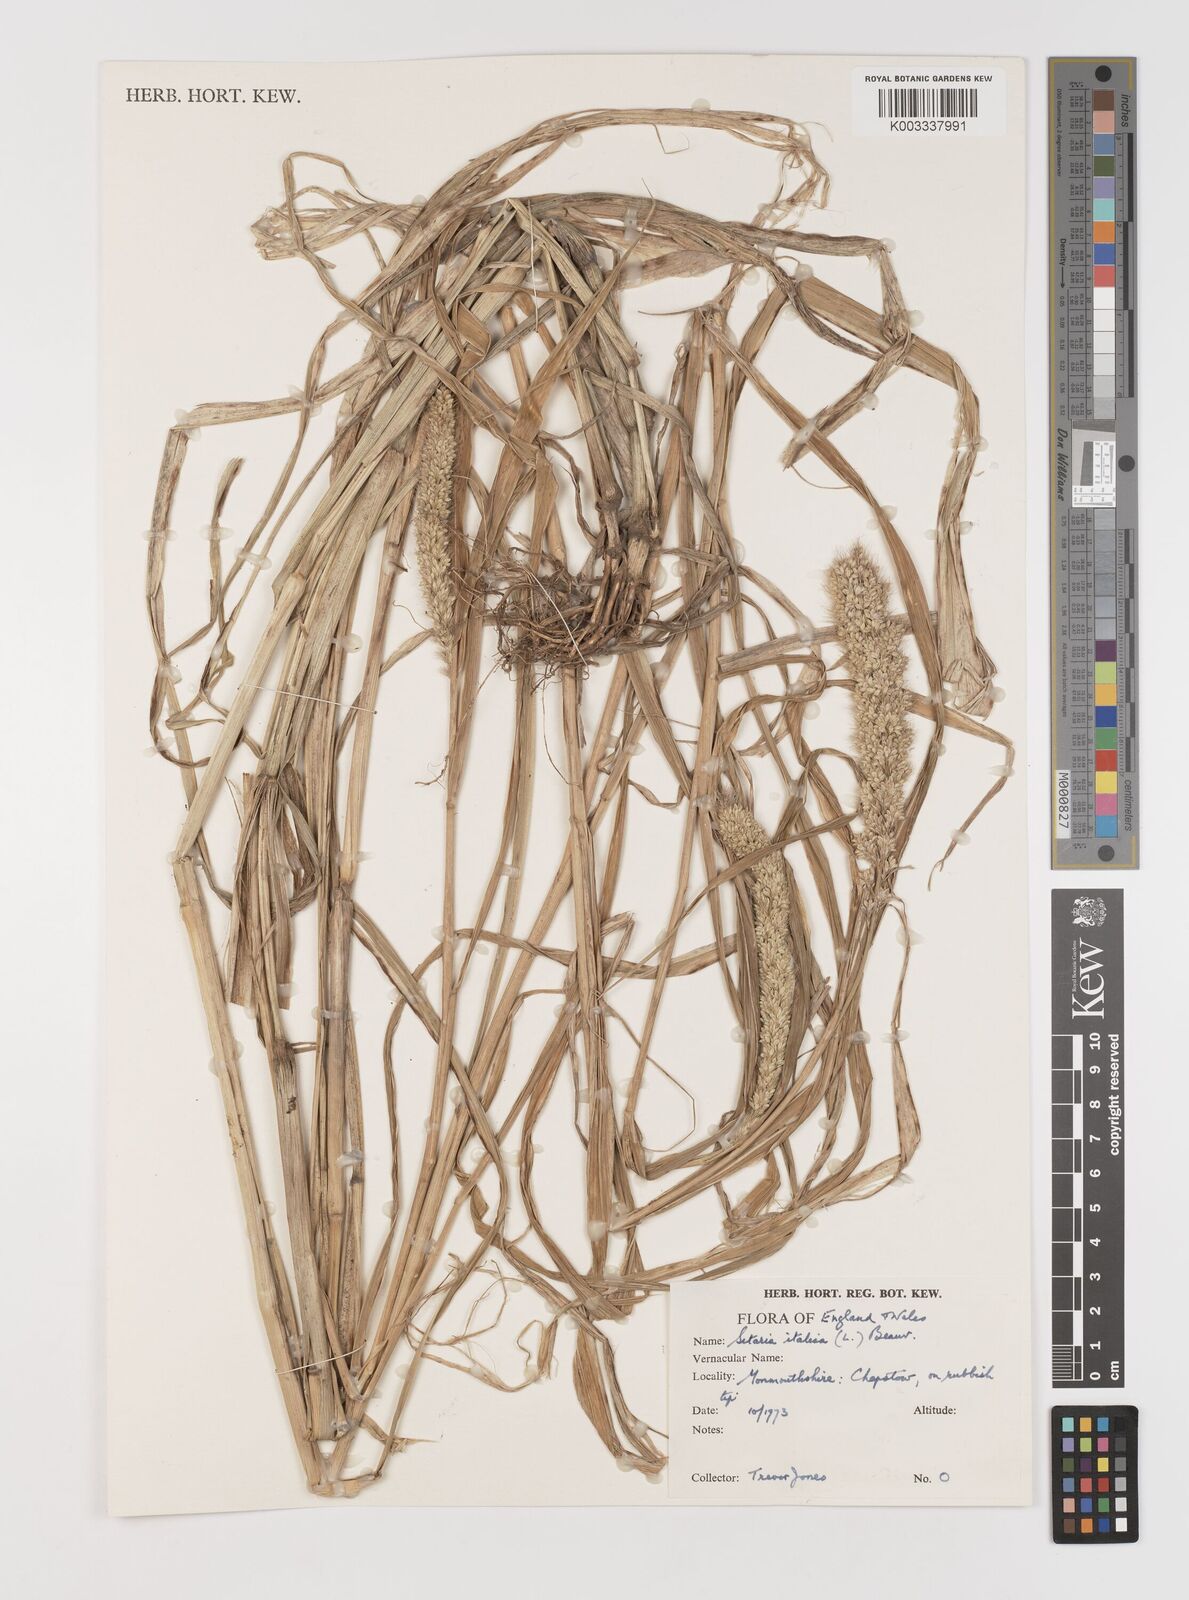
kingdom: Plantae
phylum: Tracheophyta
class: Liliopsida
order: Poales
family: Poaceae
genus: Setaria
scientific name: Setaria italica
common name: Foxtail bristle-grass
